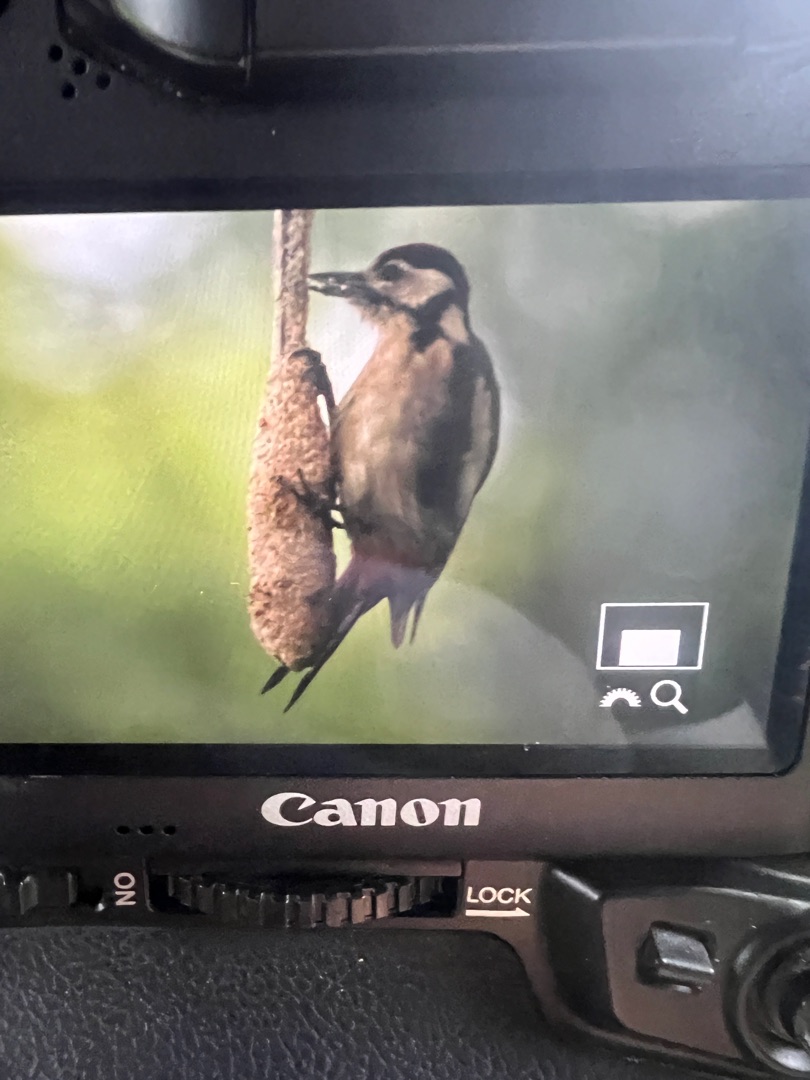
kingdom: Animalia
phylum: Chordata
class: Aves
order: Piciformes
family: Picidae
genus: Dendrocopos
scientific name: Dendrocopos major
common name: Stor flagspætte
